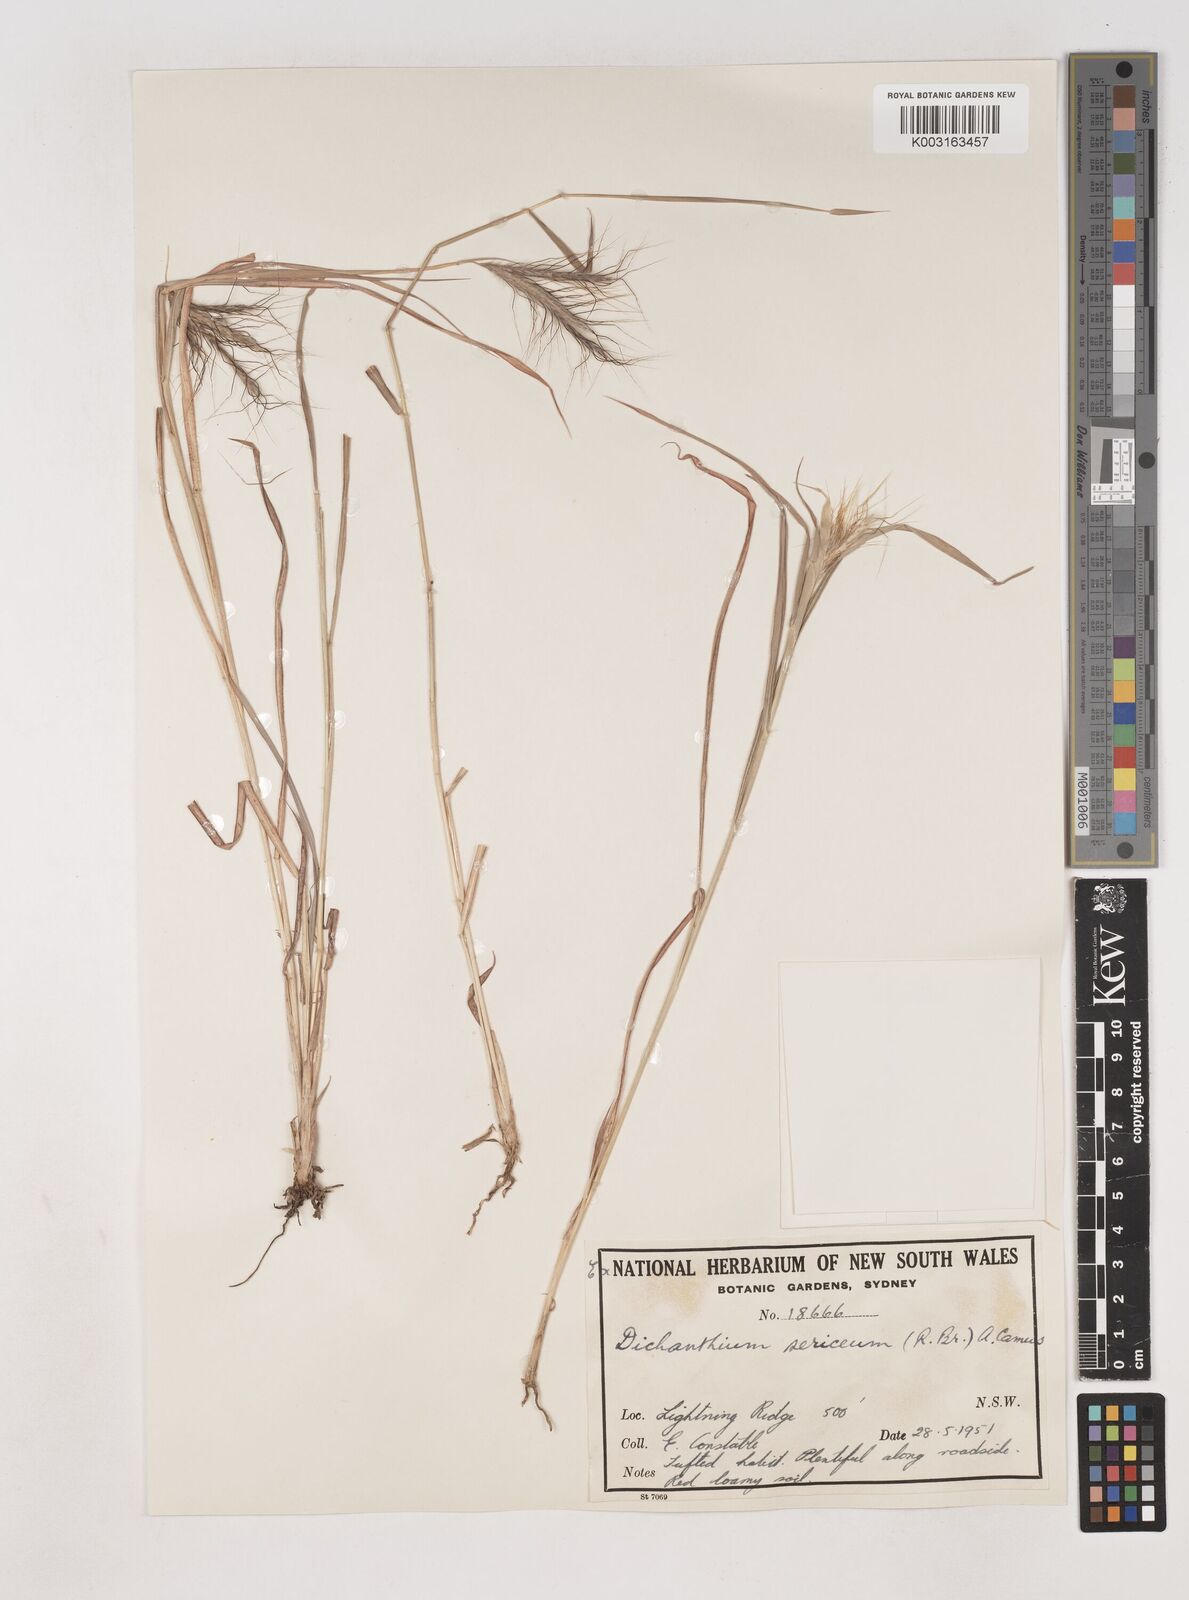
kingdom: Plantae
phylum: Tracheophyta
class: Liliopsida
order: Poales
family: Poaceae
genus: Dichanthium
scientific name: Dichanthium sericeum
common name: Silky bluestem
